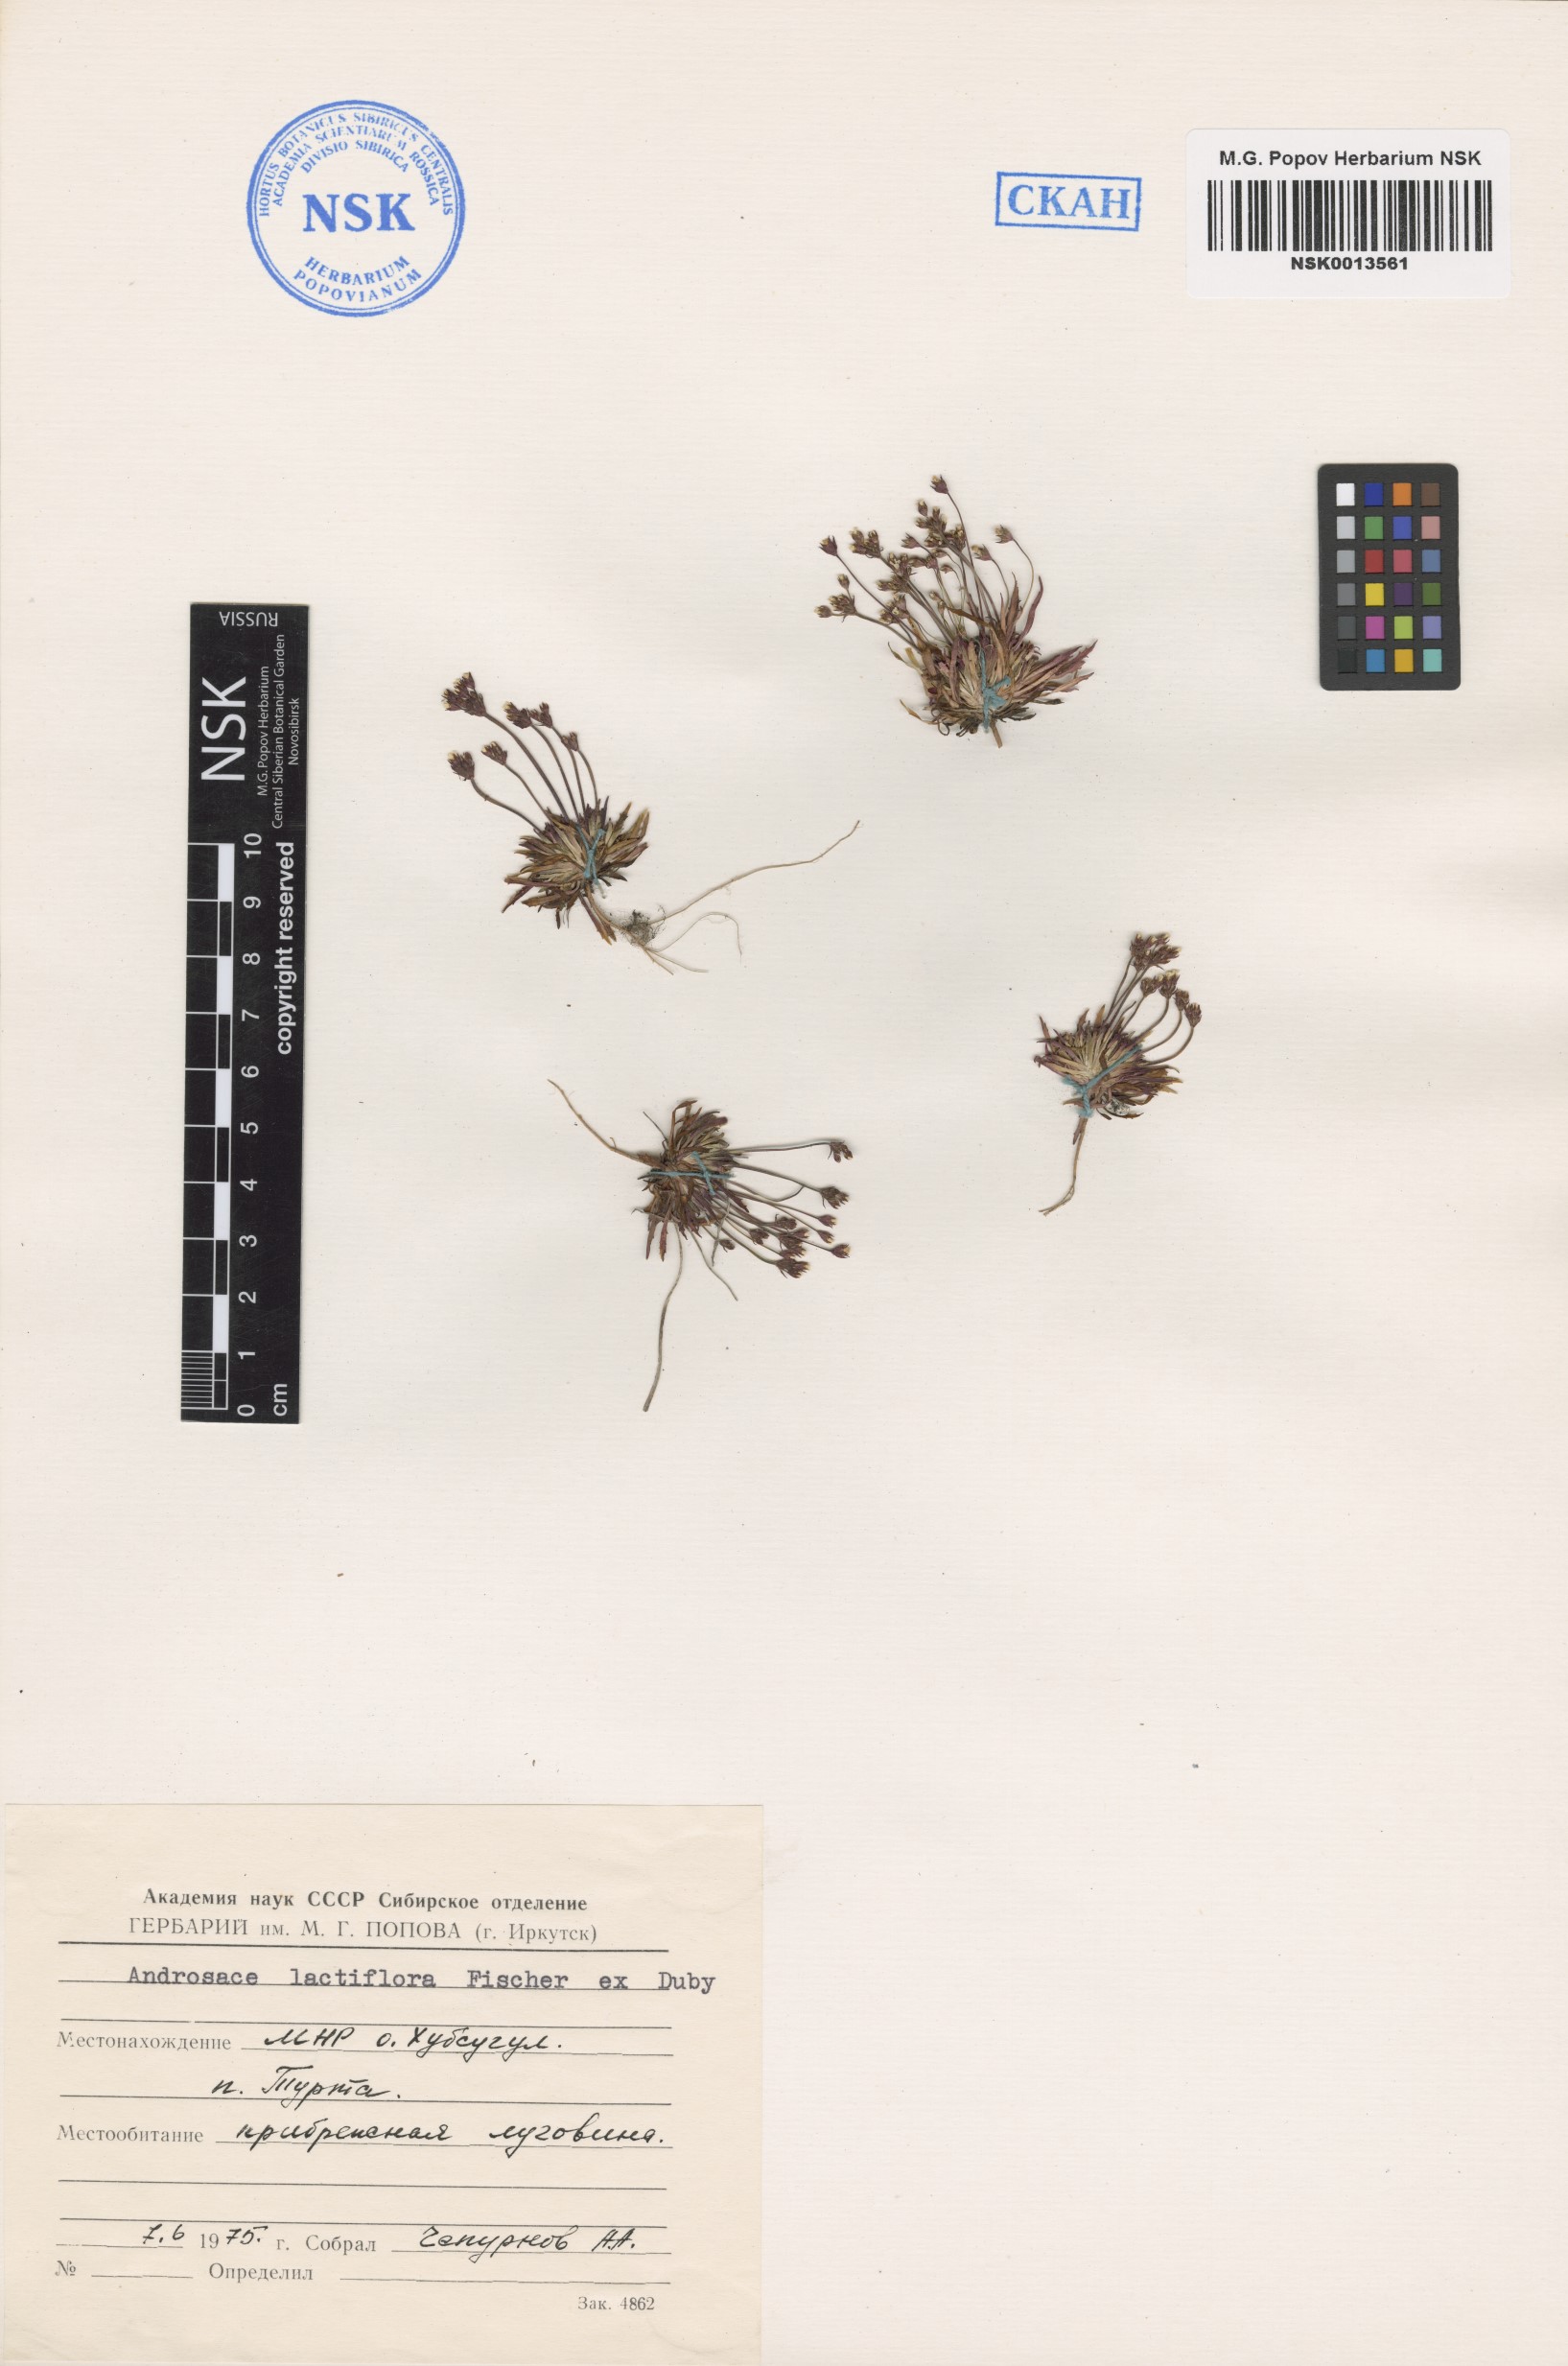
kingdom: Plantae
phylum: Tracheophyta
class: Magnoliopsida
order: Ericales
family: Primulaceae
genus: Androsace
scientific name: Androsace lactiflora
